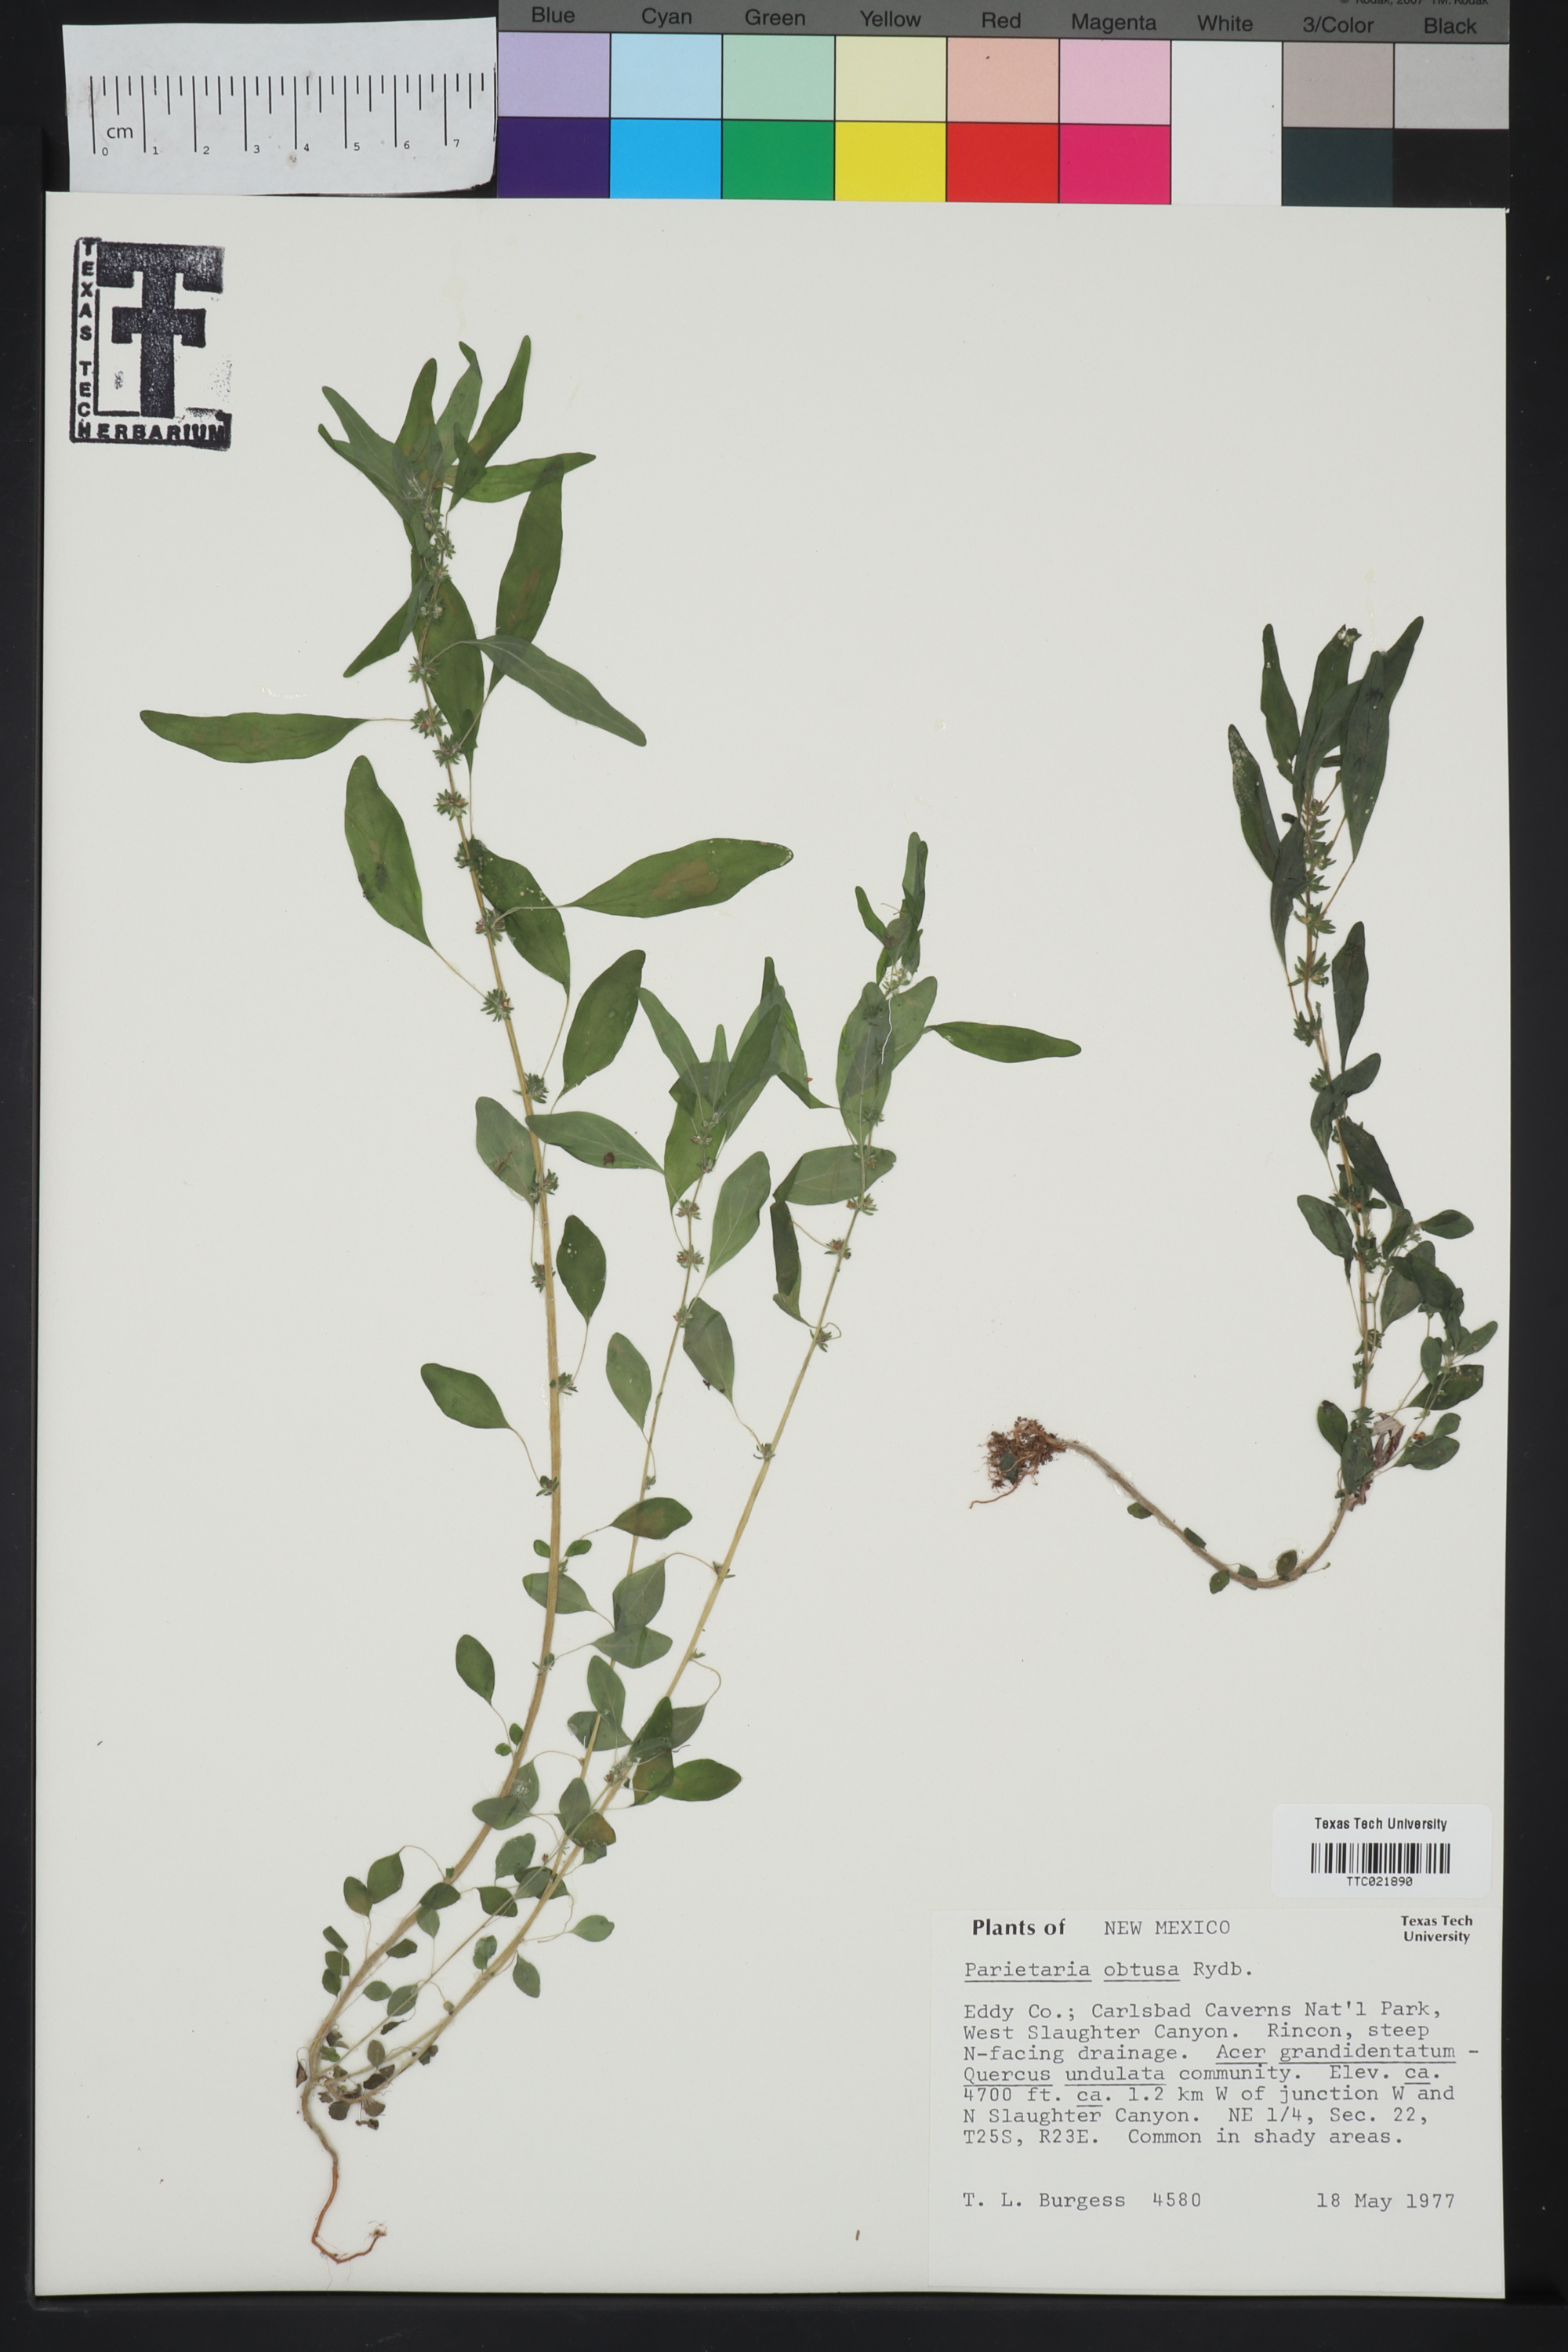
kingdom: Plantae
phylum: Tracheophyta
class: Magnoliopsida
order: Rosales
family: Urticaceae
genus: Parietaria
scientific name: Parietaria pensylvanica
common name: Pennsylvania pellitory
